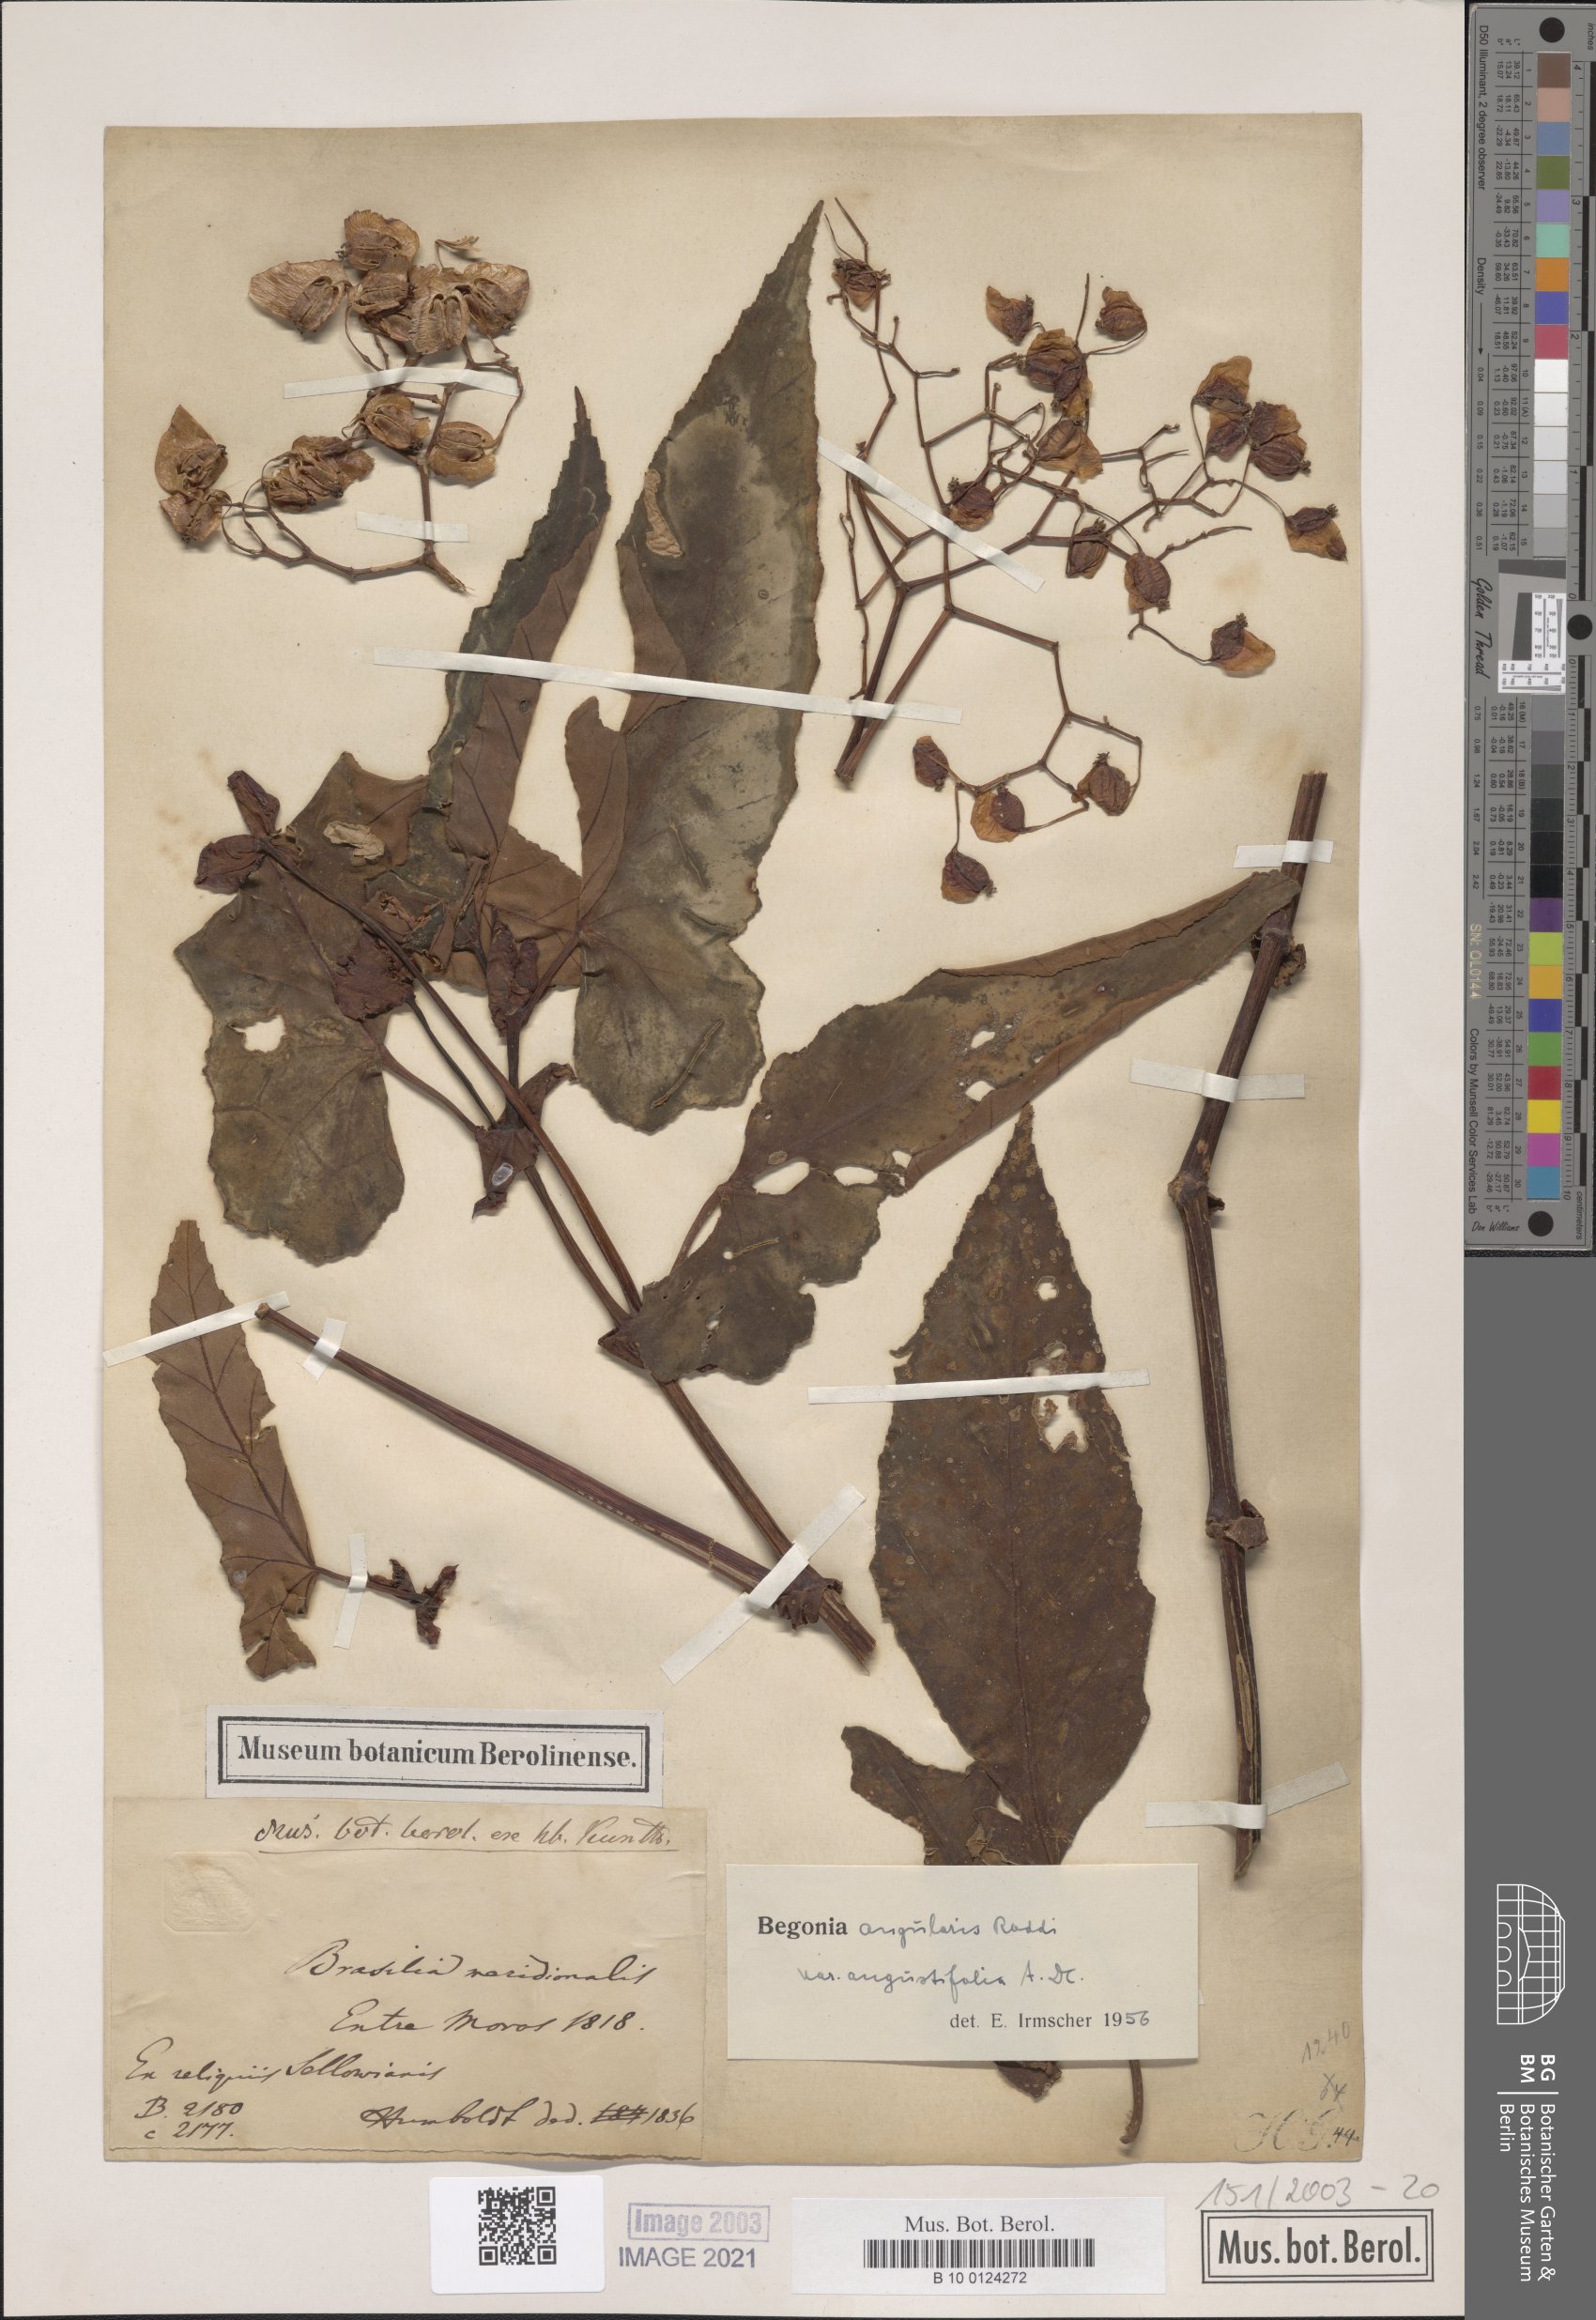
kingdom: Plantae
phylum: Tracheophyta
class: Magnoliopsida
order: Cucurbitales
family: Begoniaceae
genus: Begonia
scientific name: Begonia angularis
